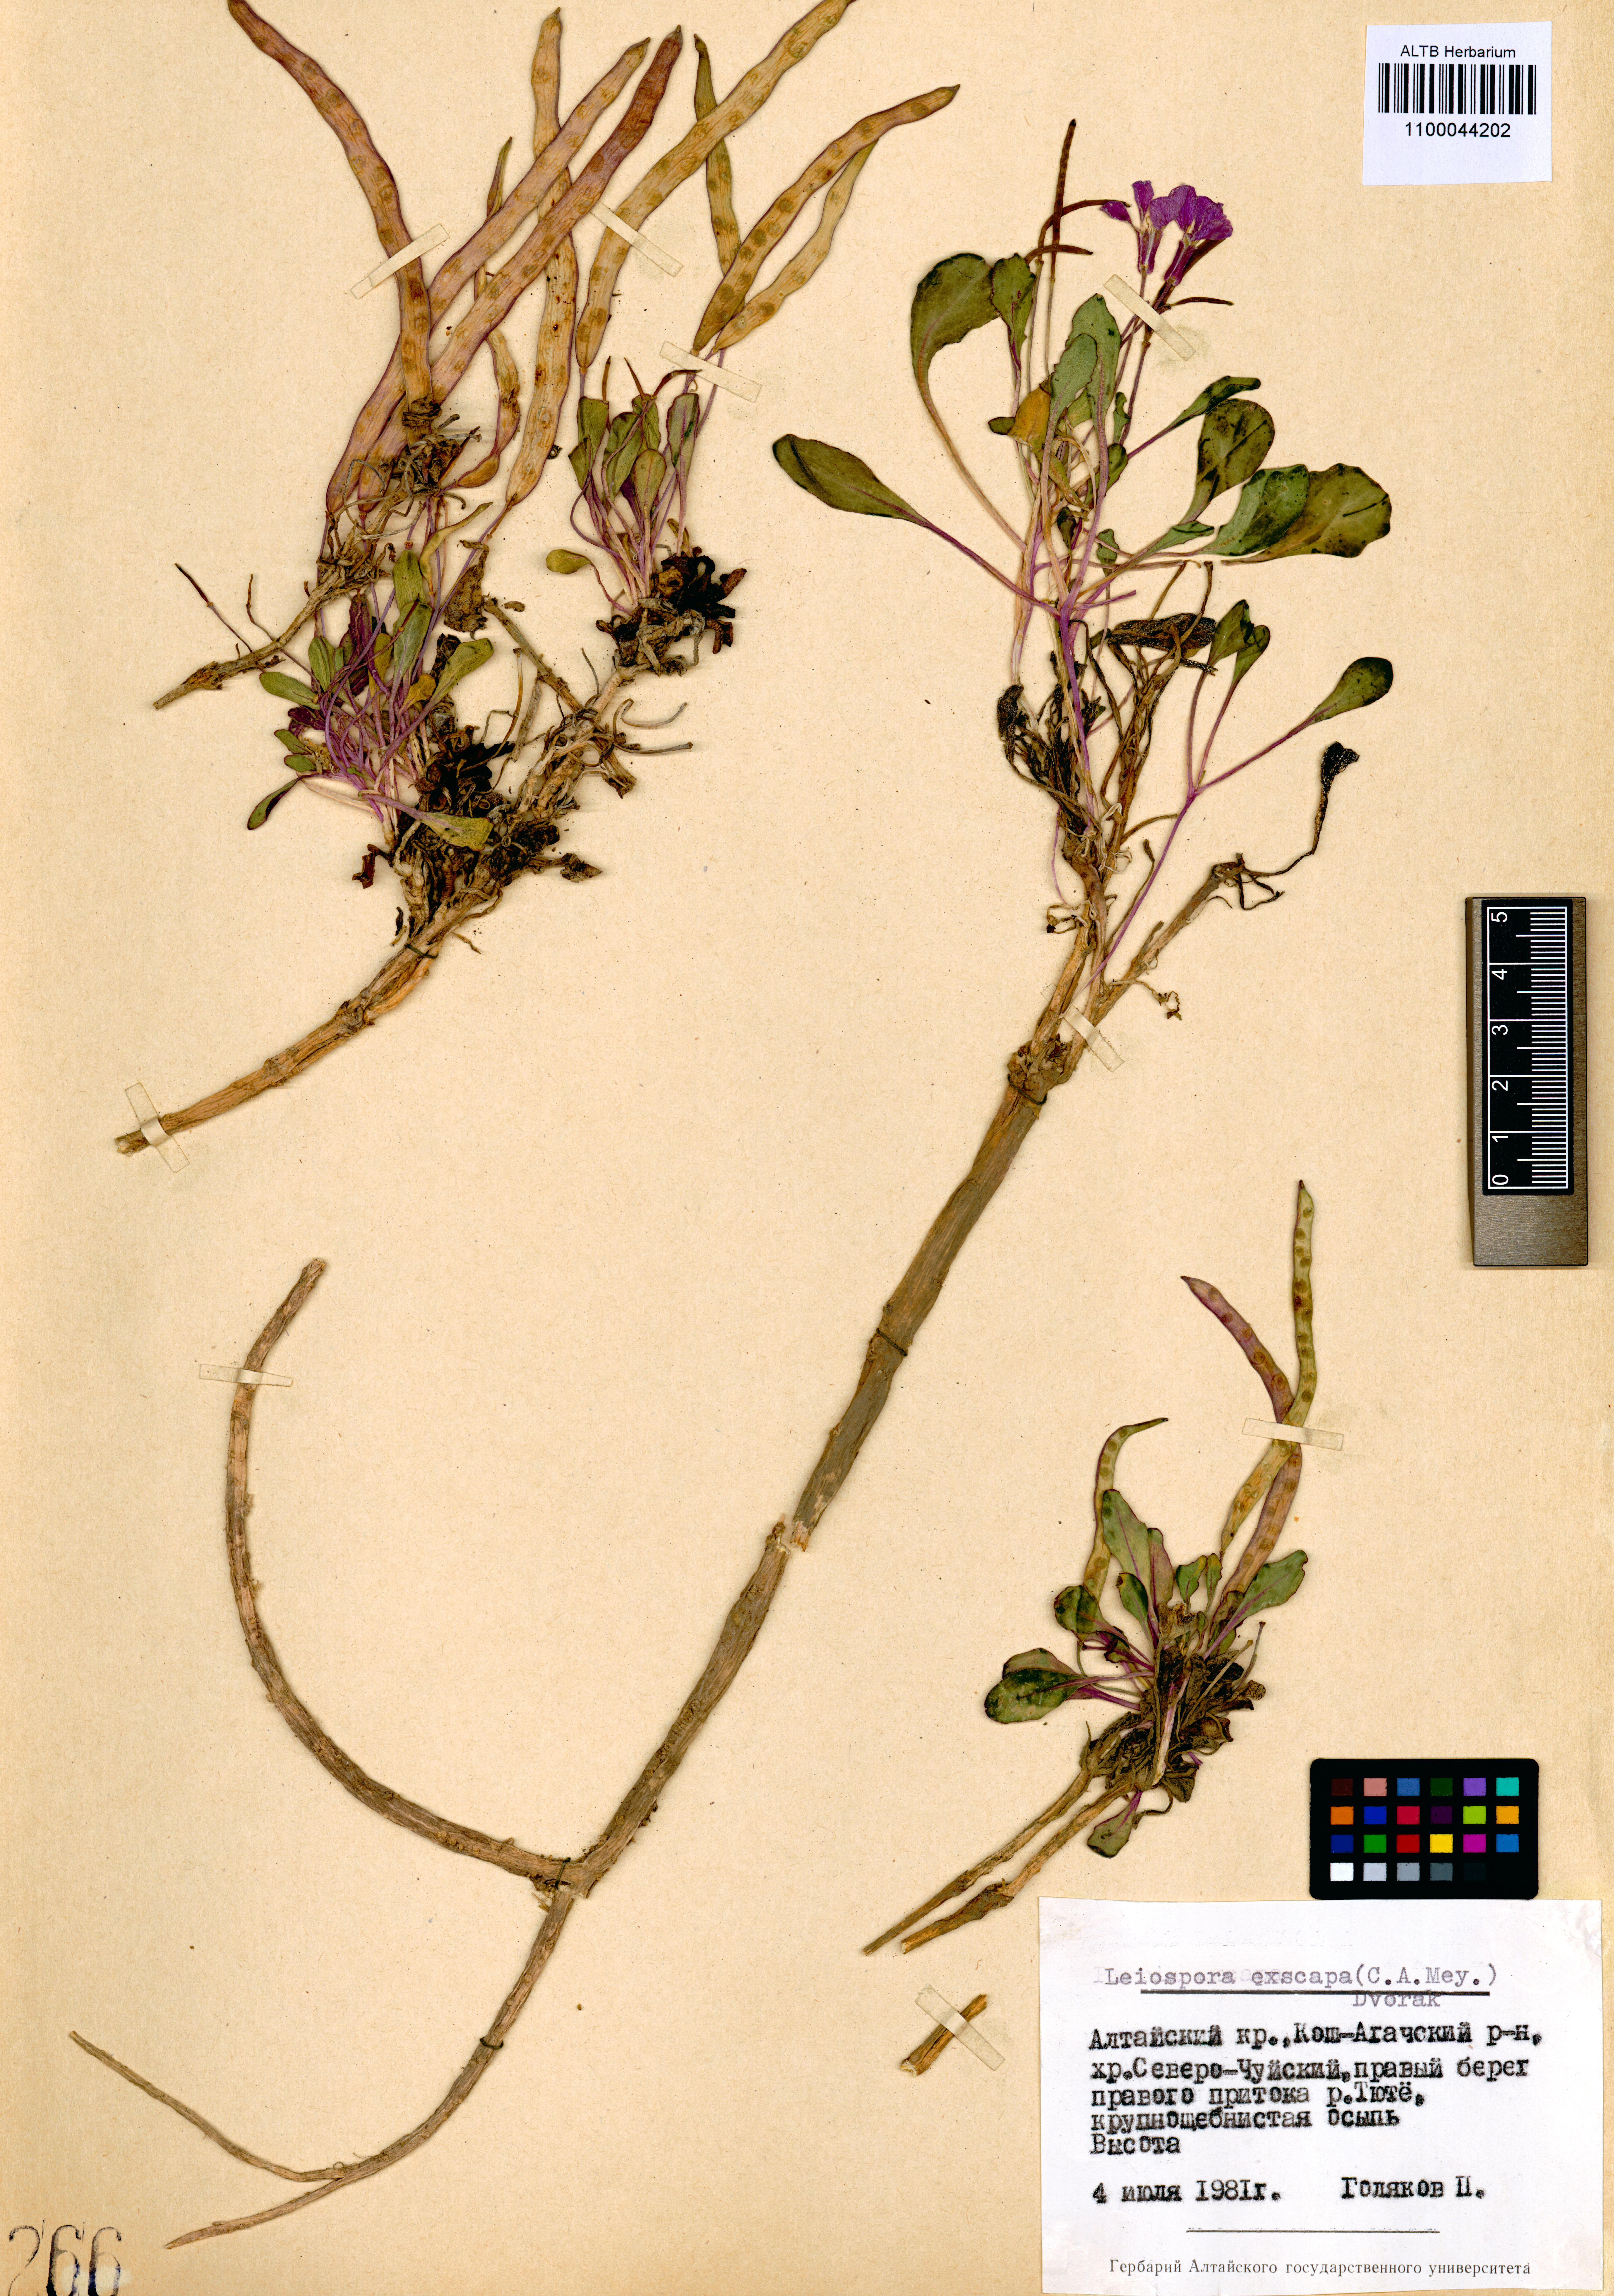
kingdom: Plantae
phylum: Tracheophyta
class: Magnoliopsida
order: Brassicales
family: Brassicaceae
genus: Leiospora
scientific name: Leiospora exscapa
